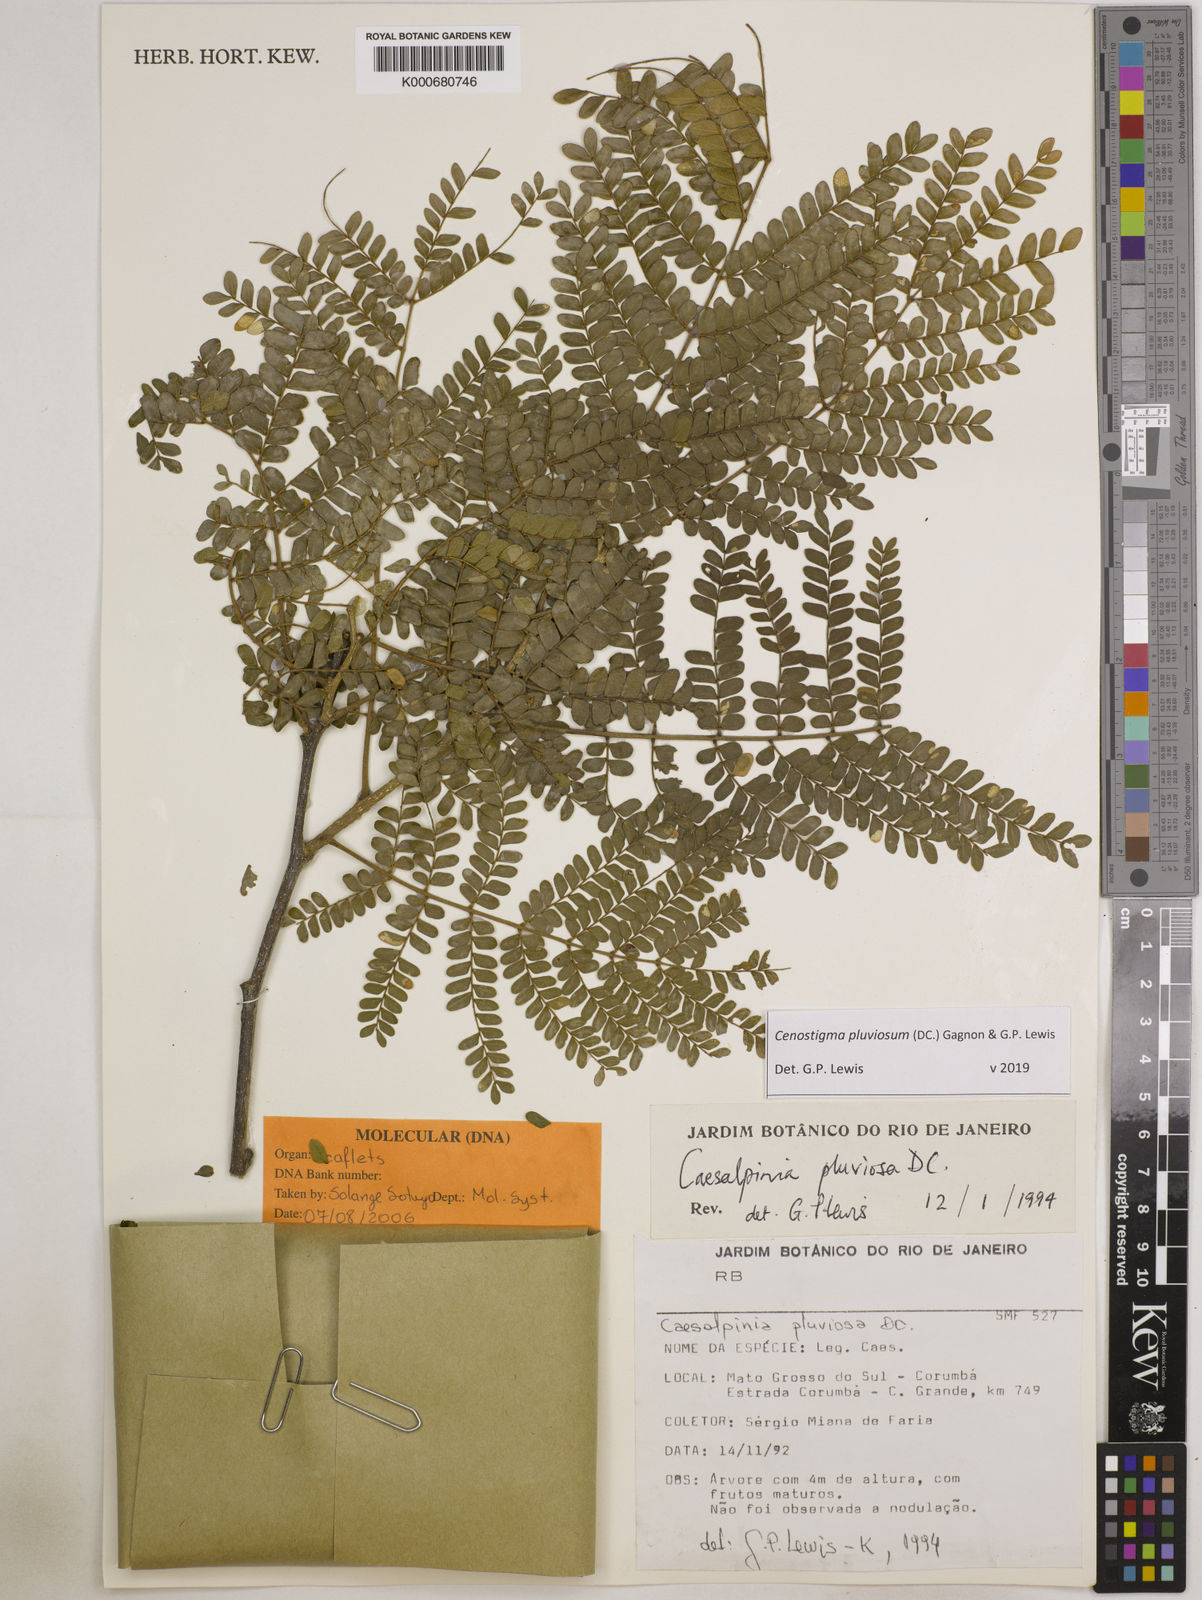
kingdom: Plantae
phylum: Tracheophyta
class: Magnoliopsida
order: Fabales
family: Fabaceae
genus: Cenostigma
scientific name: Cenostigma pluviosum
